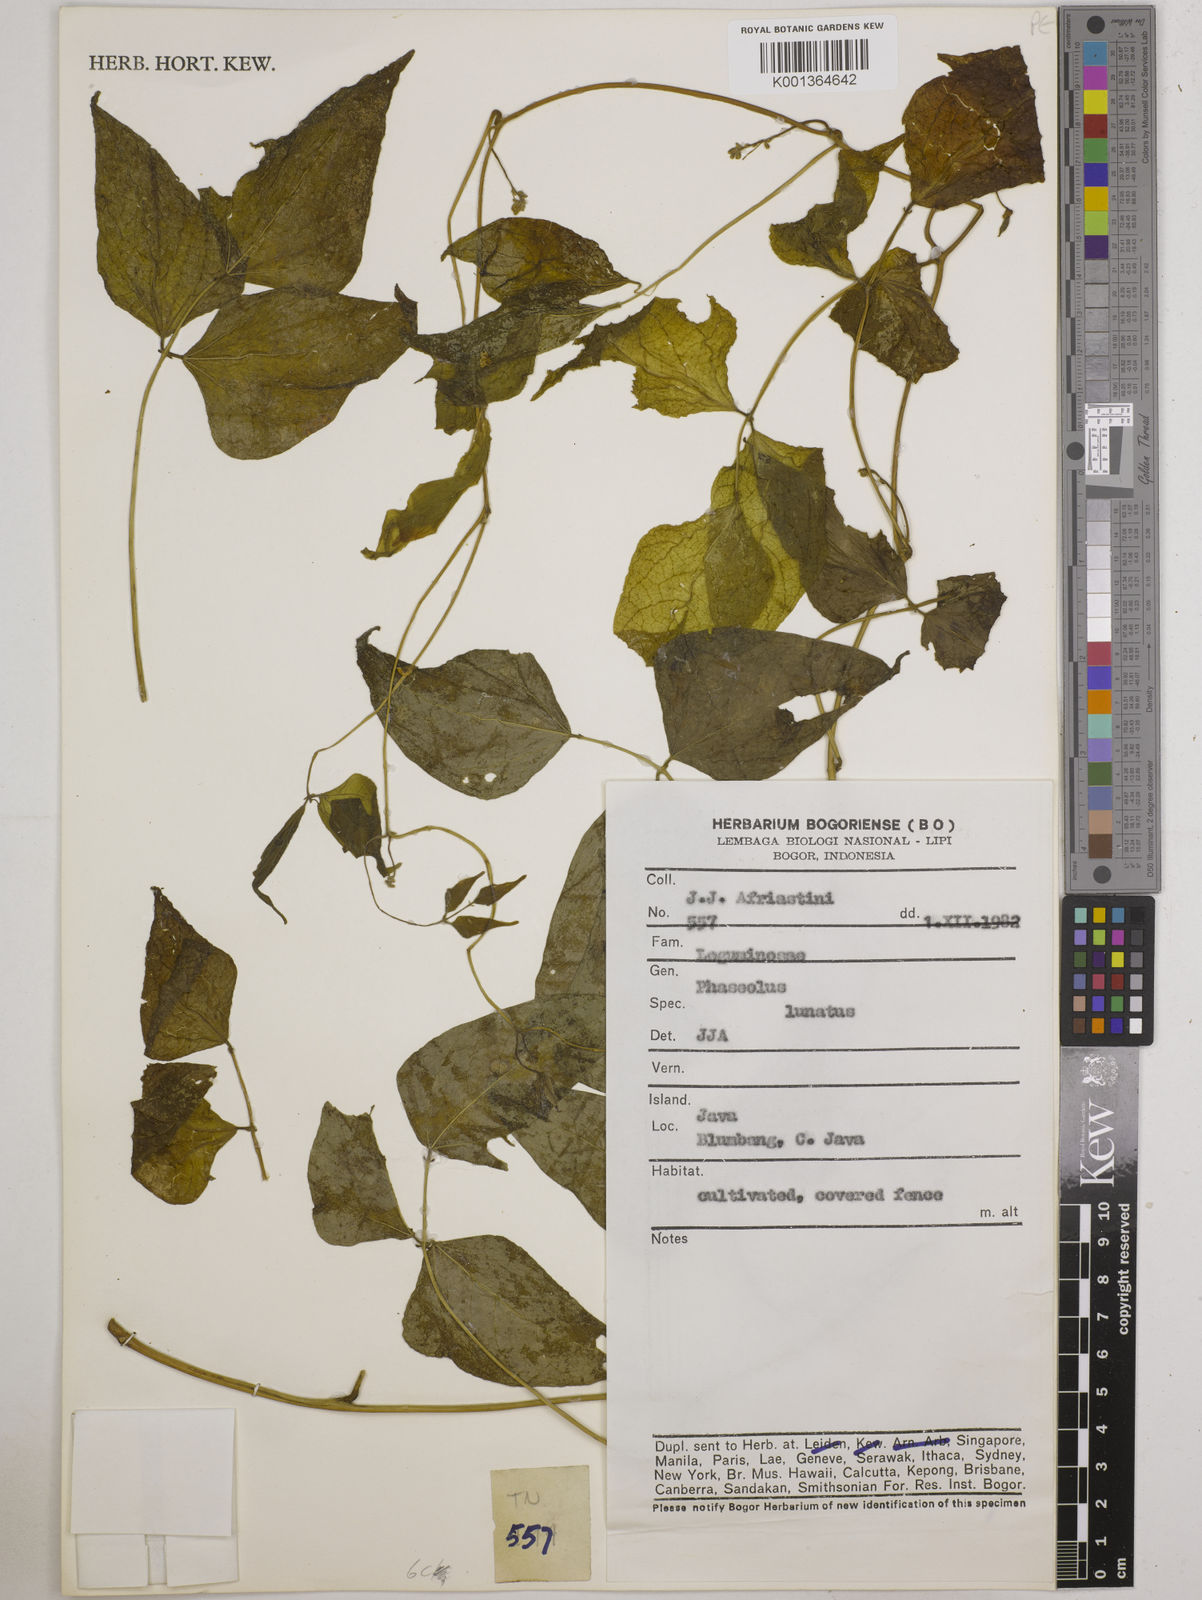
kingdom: Plantae
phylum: Tracheophyta
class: Magnoliopsida
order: Fabales
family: Fabaceae
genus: Phaseolus
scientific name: Phaseolus lunatus
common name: Sieva bean
